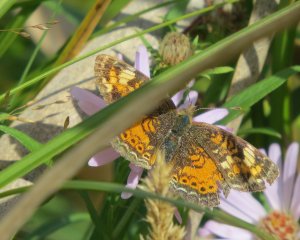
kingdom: Animalia
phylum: Arthropoda
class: Insecta
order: Lepidoptera
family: Nymphalidae
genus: Phyciodes
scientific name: Phyciodes tharos
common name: Northern Crescent
